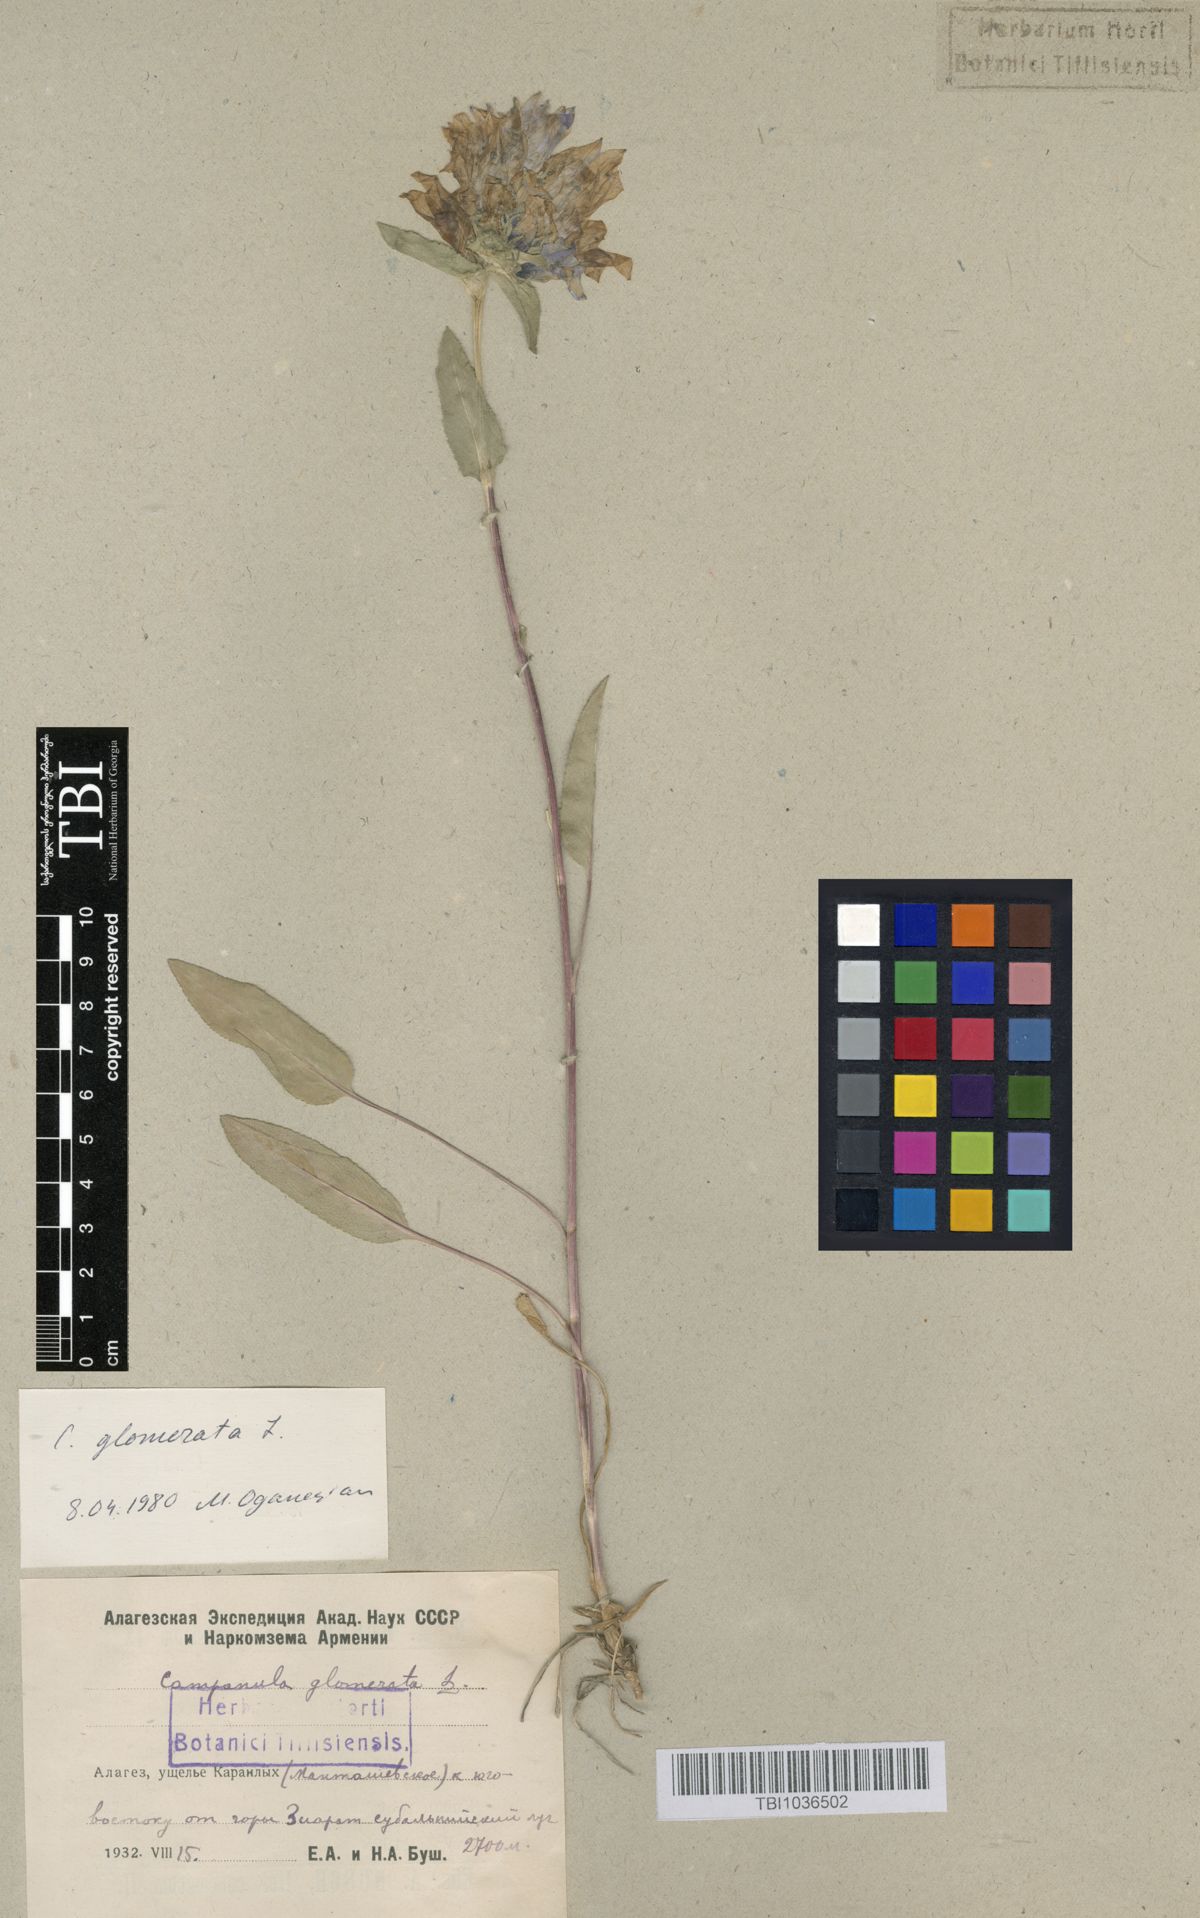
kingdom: Plantae
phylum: Tracheophyta
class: Magnoliopsida
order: Asterales
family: Campanulaceae
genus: Campanula
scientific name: Campanula glomerata
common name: Clustered bellflower
